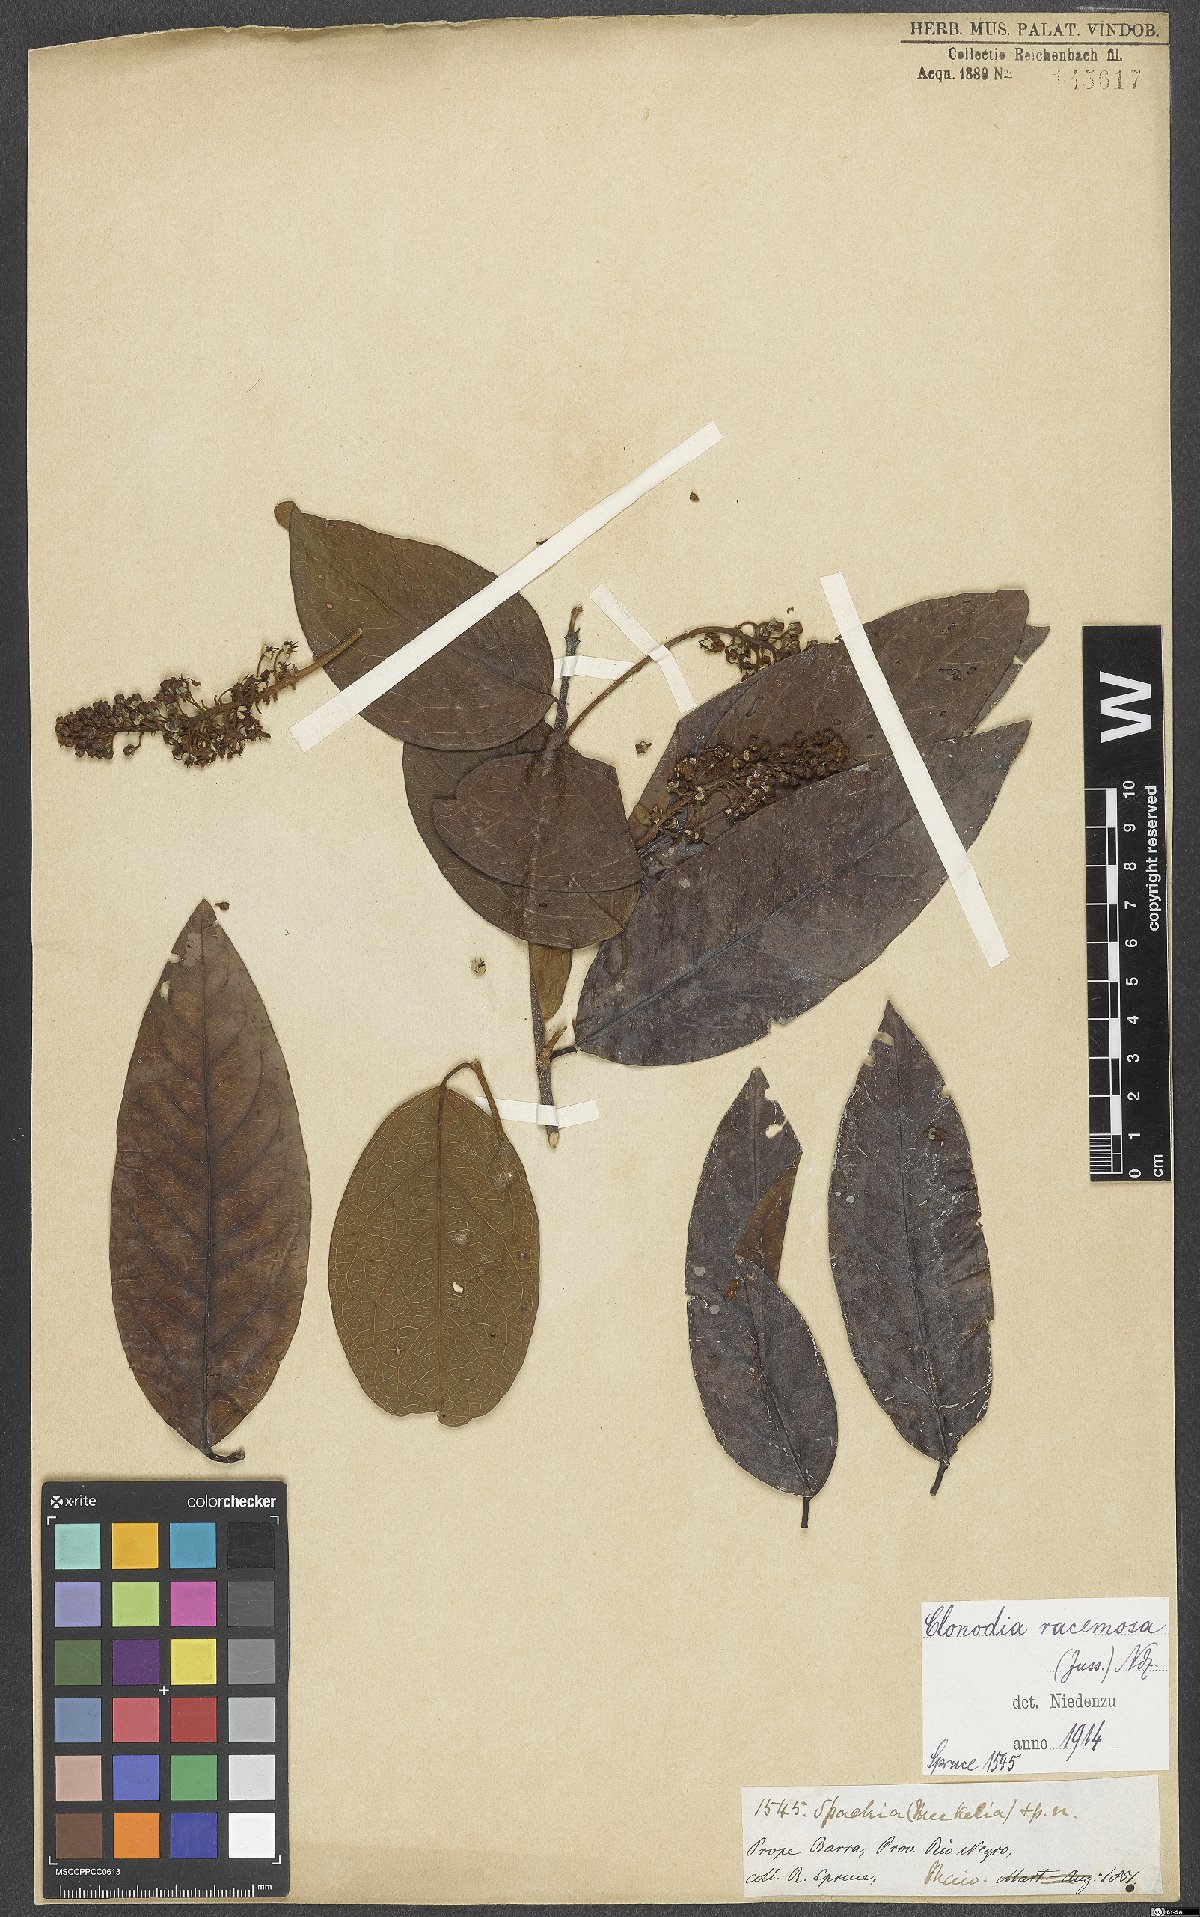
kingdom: Plantae
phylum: Tracheophyta
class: Magnoliopsida
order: Malpighiales
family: Malpighiaceae
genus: Heteropterys
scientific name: Heteropterys racemosa
